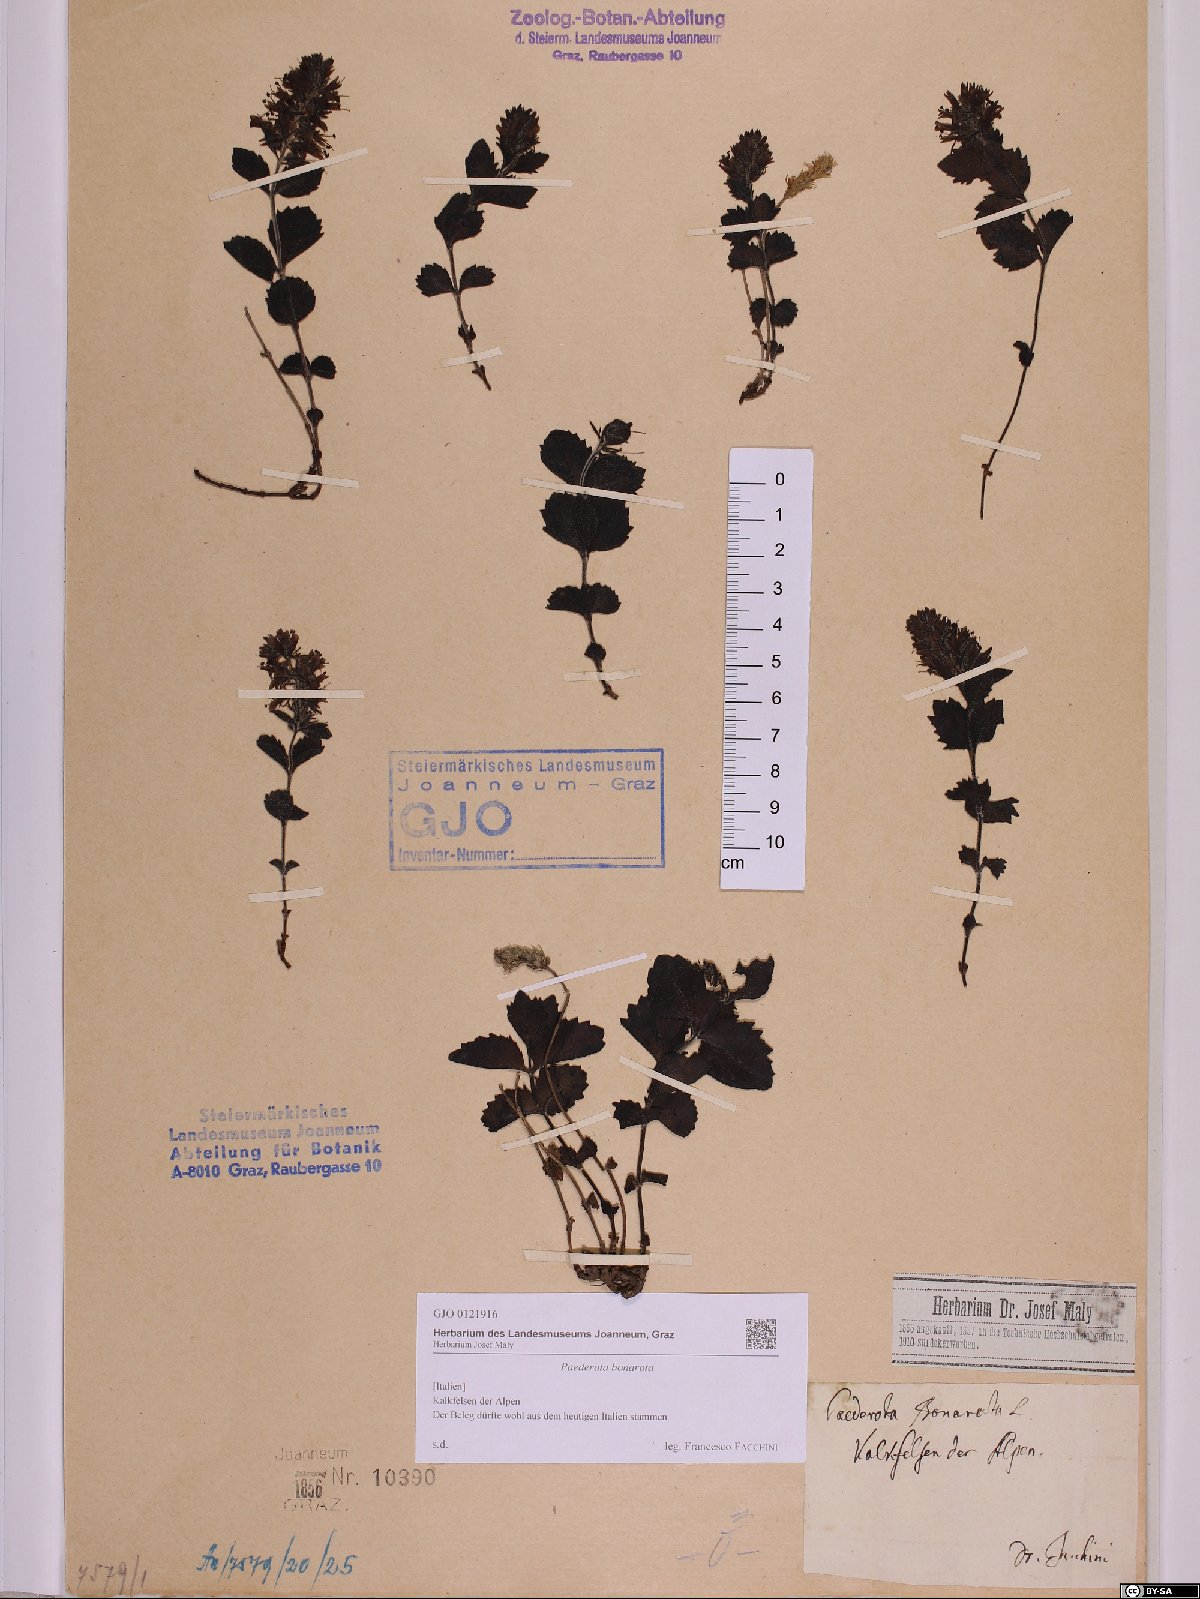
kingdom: Plantae
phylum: Tracheophyta
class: Magnoliopsida
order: Lamiales
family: Plantaginaceae
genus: Paederota
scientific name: Paederota bonarota
